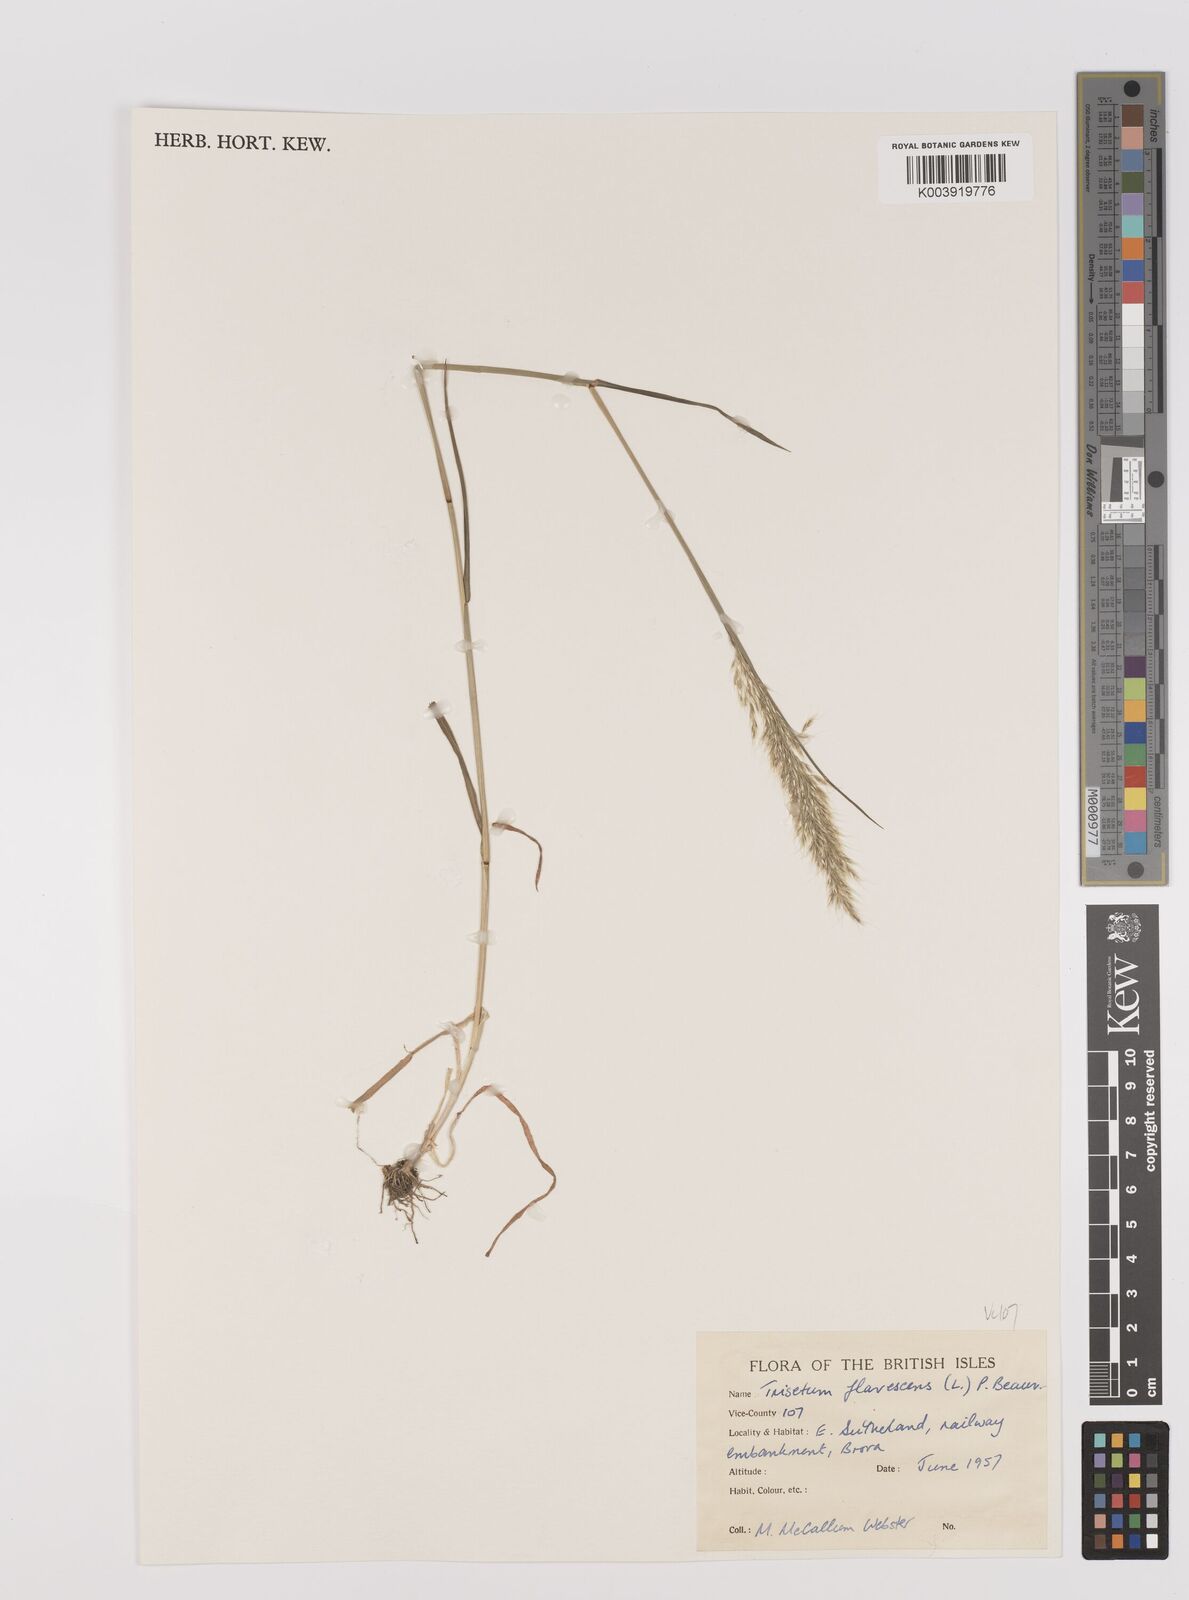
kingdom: Plantae
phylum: Tracheophyta
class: Liliopsida
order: Poales
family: Poaceae
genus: Trisetum
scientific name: Trisetum flavescens
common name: Yellow oat-grass
